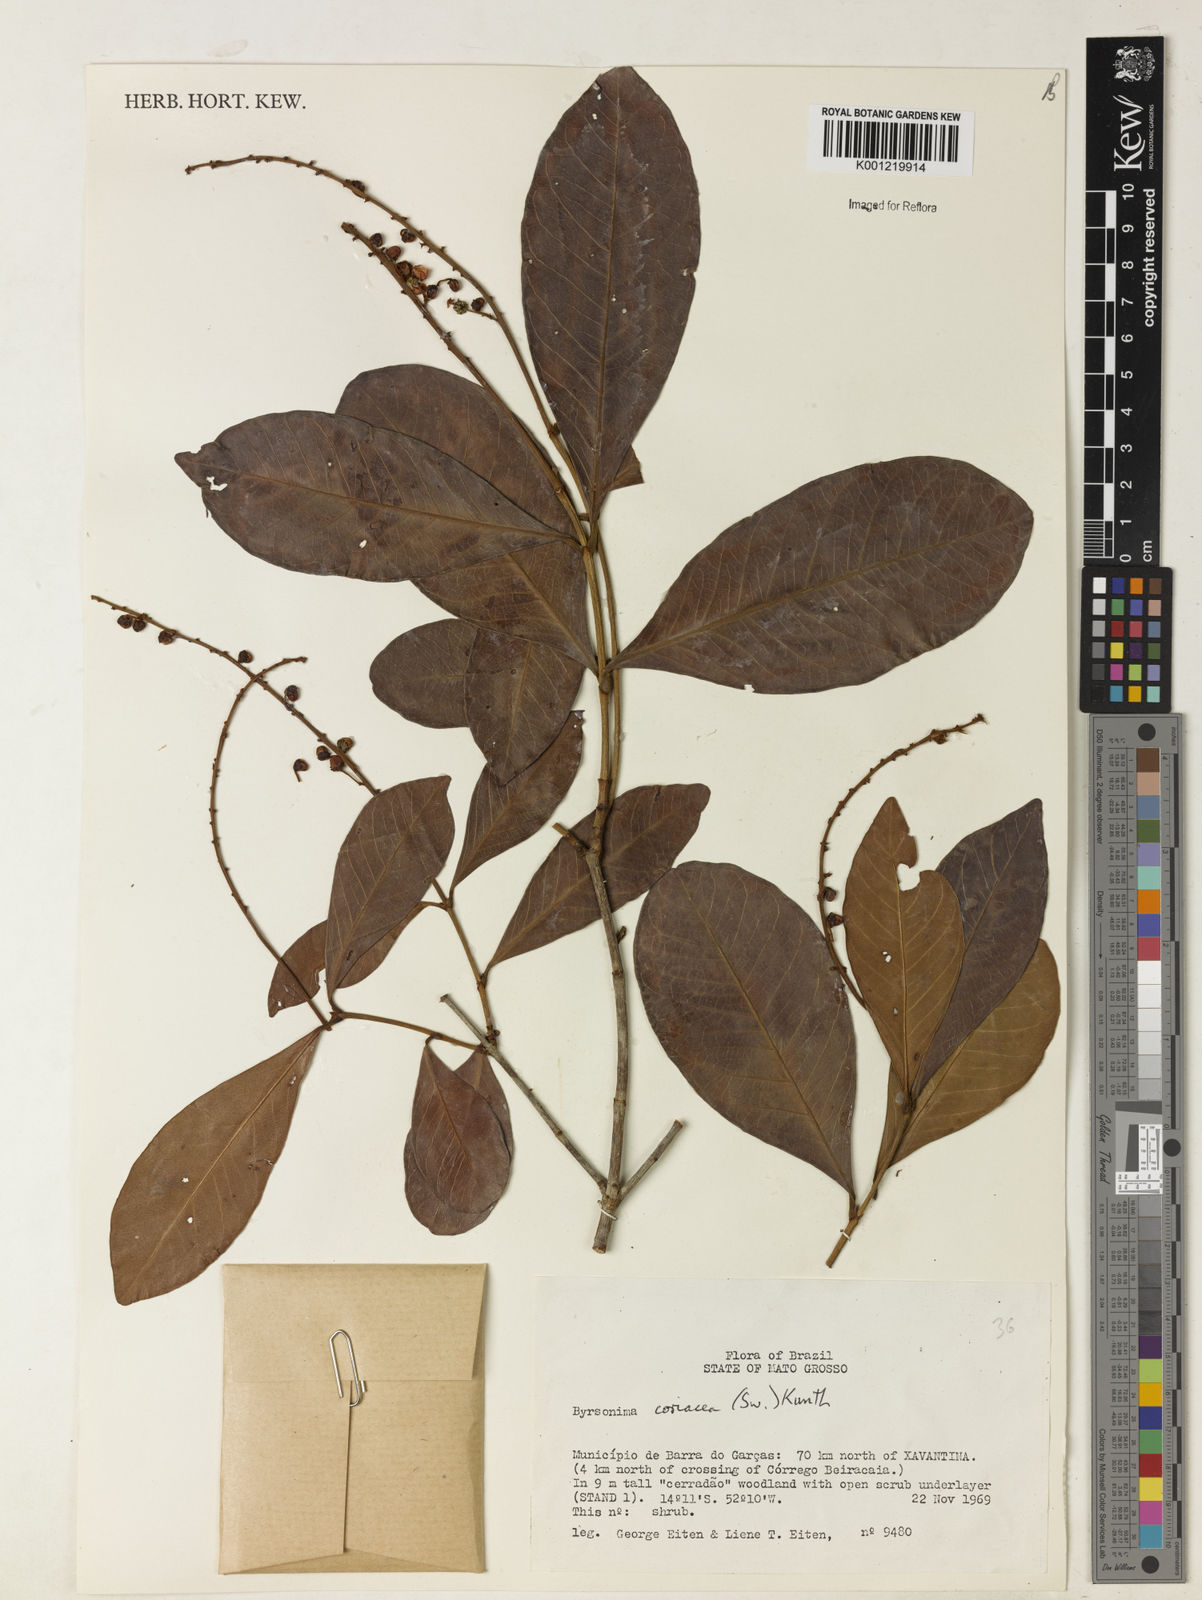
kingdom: Plantae
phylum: Tracheophyta
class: Magnoliopsida
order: Malpighiales
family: Malpighiaceae
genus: Byrsonima
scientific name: Byrsonima
